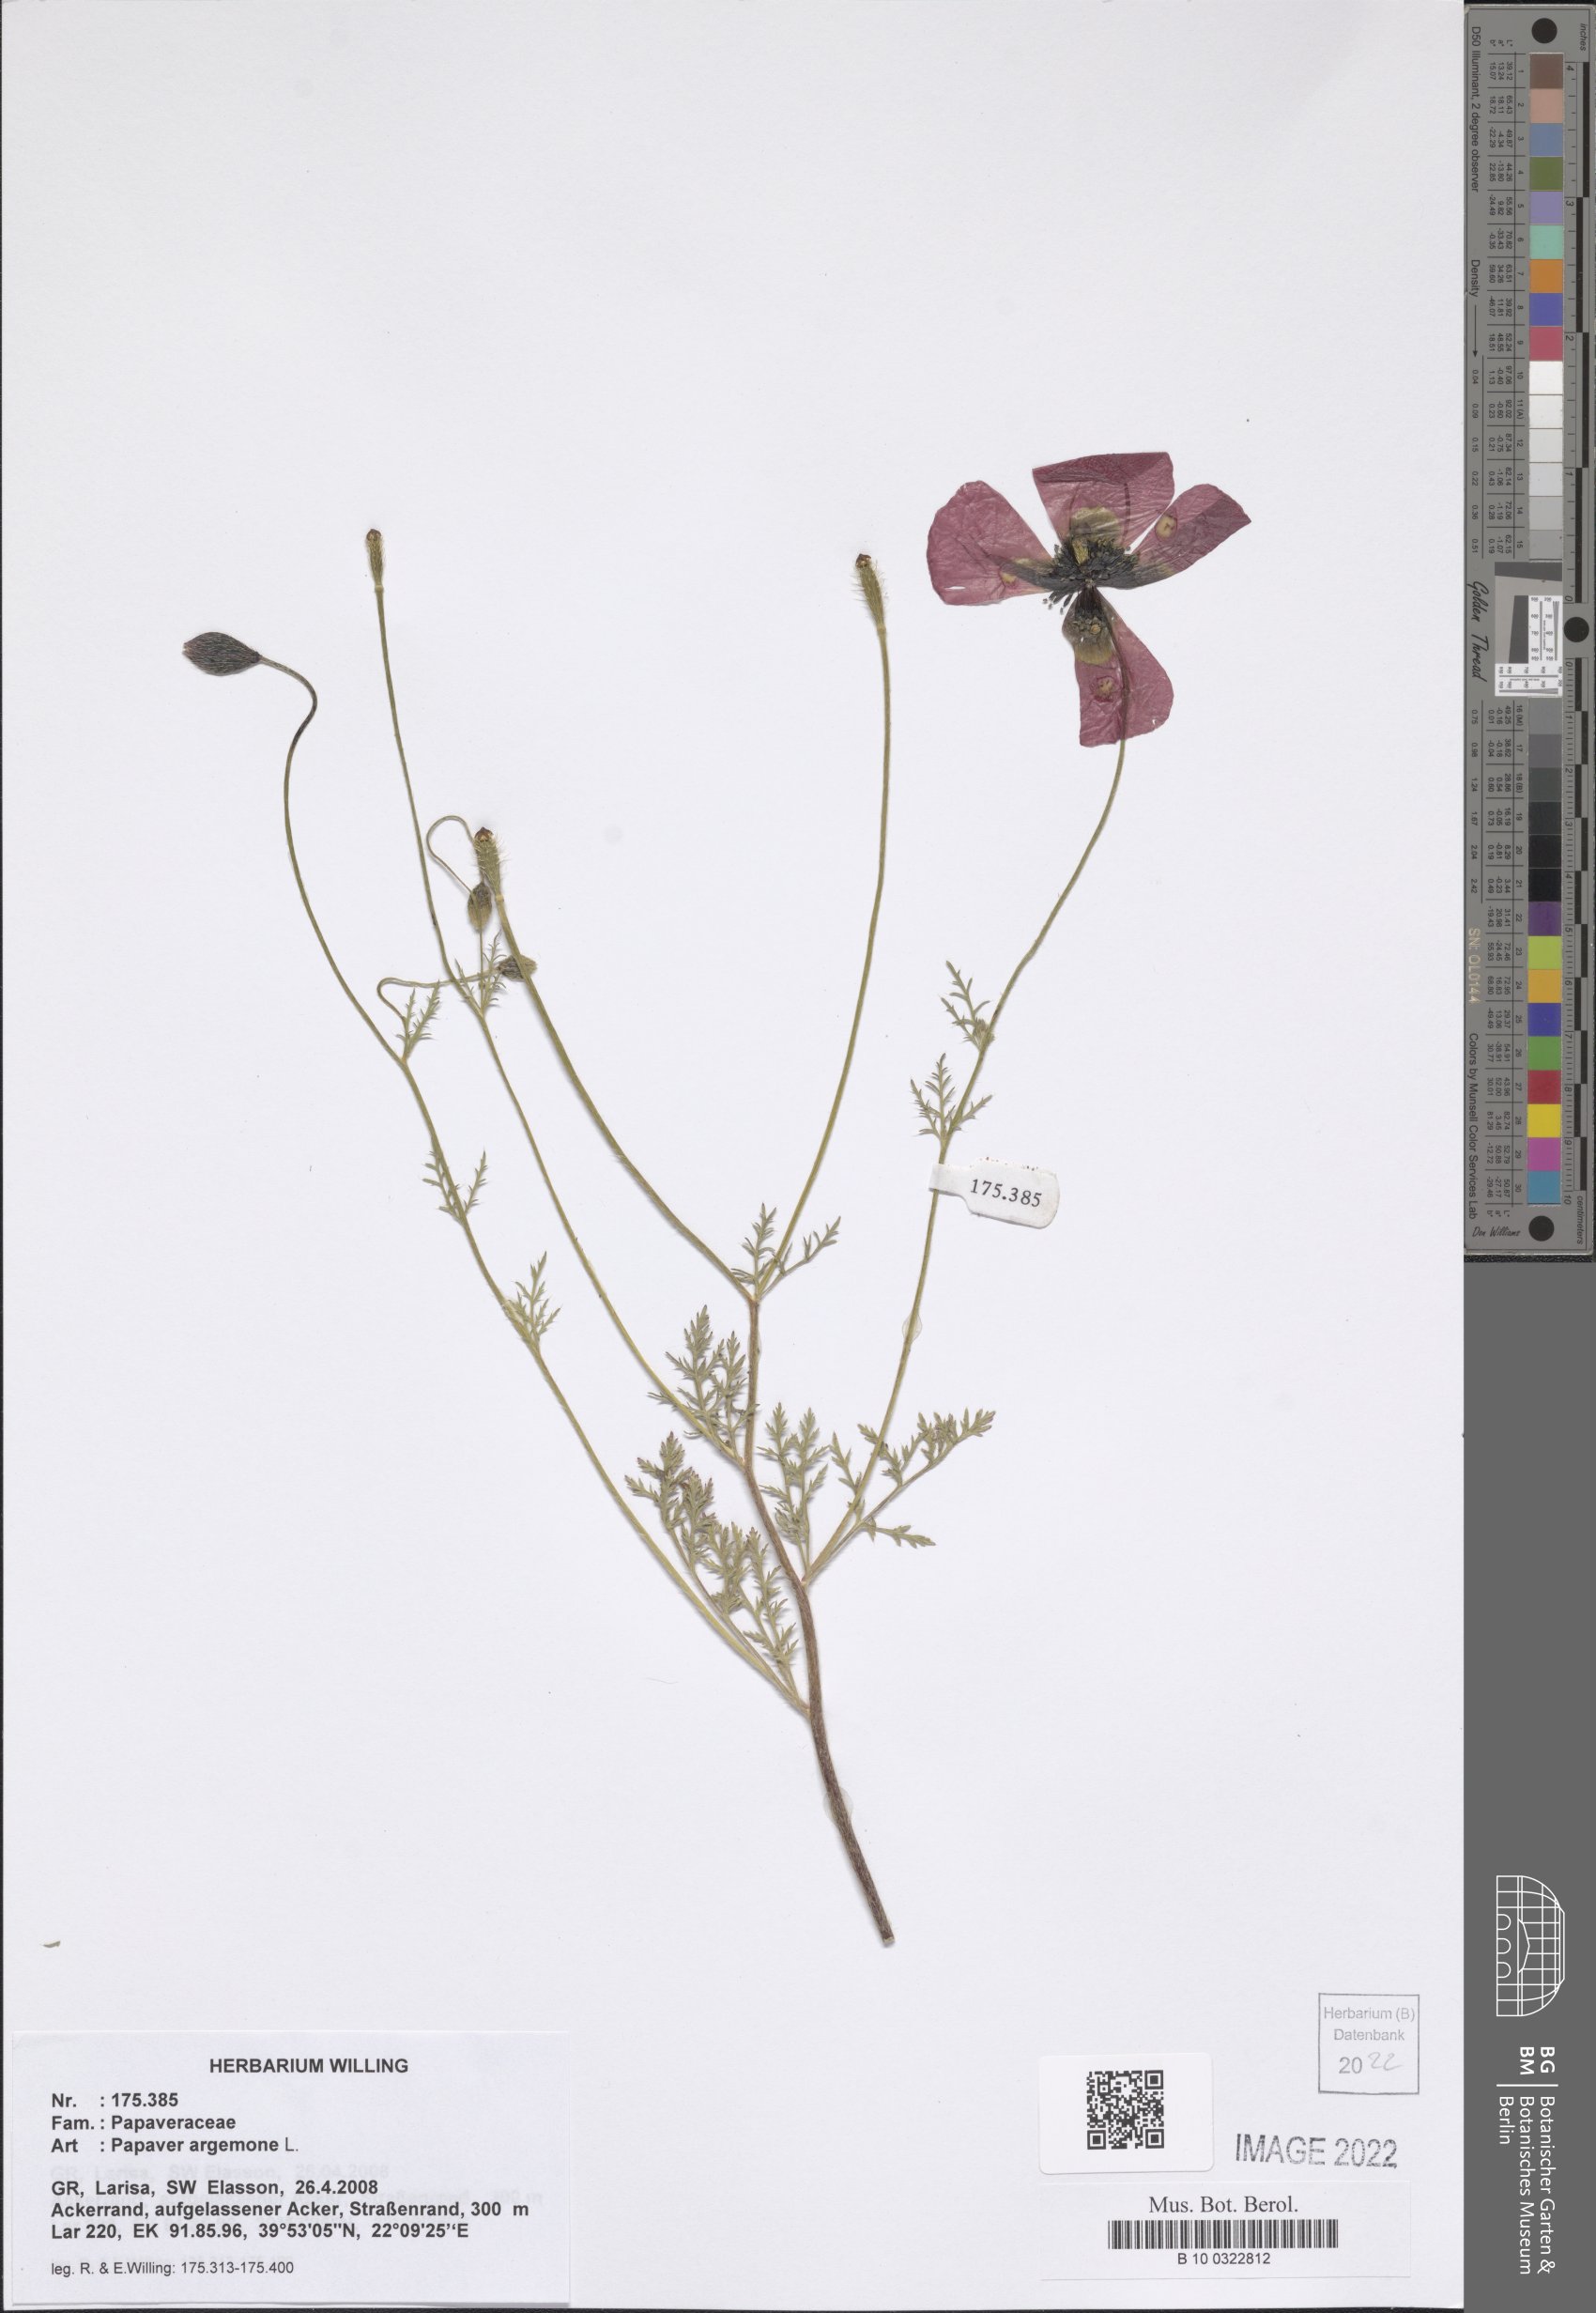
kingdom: Plantae
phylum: Tracheophyta
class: Magnoliopsida
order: Ranunculales
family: Papaveraceae
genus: Roemeria
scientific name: Roemeria argemone
